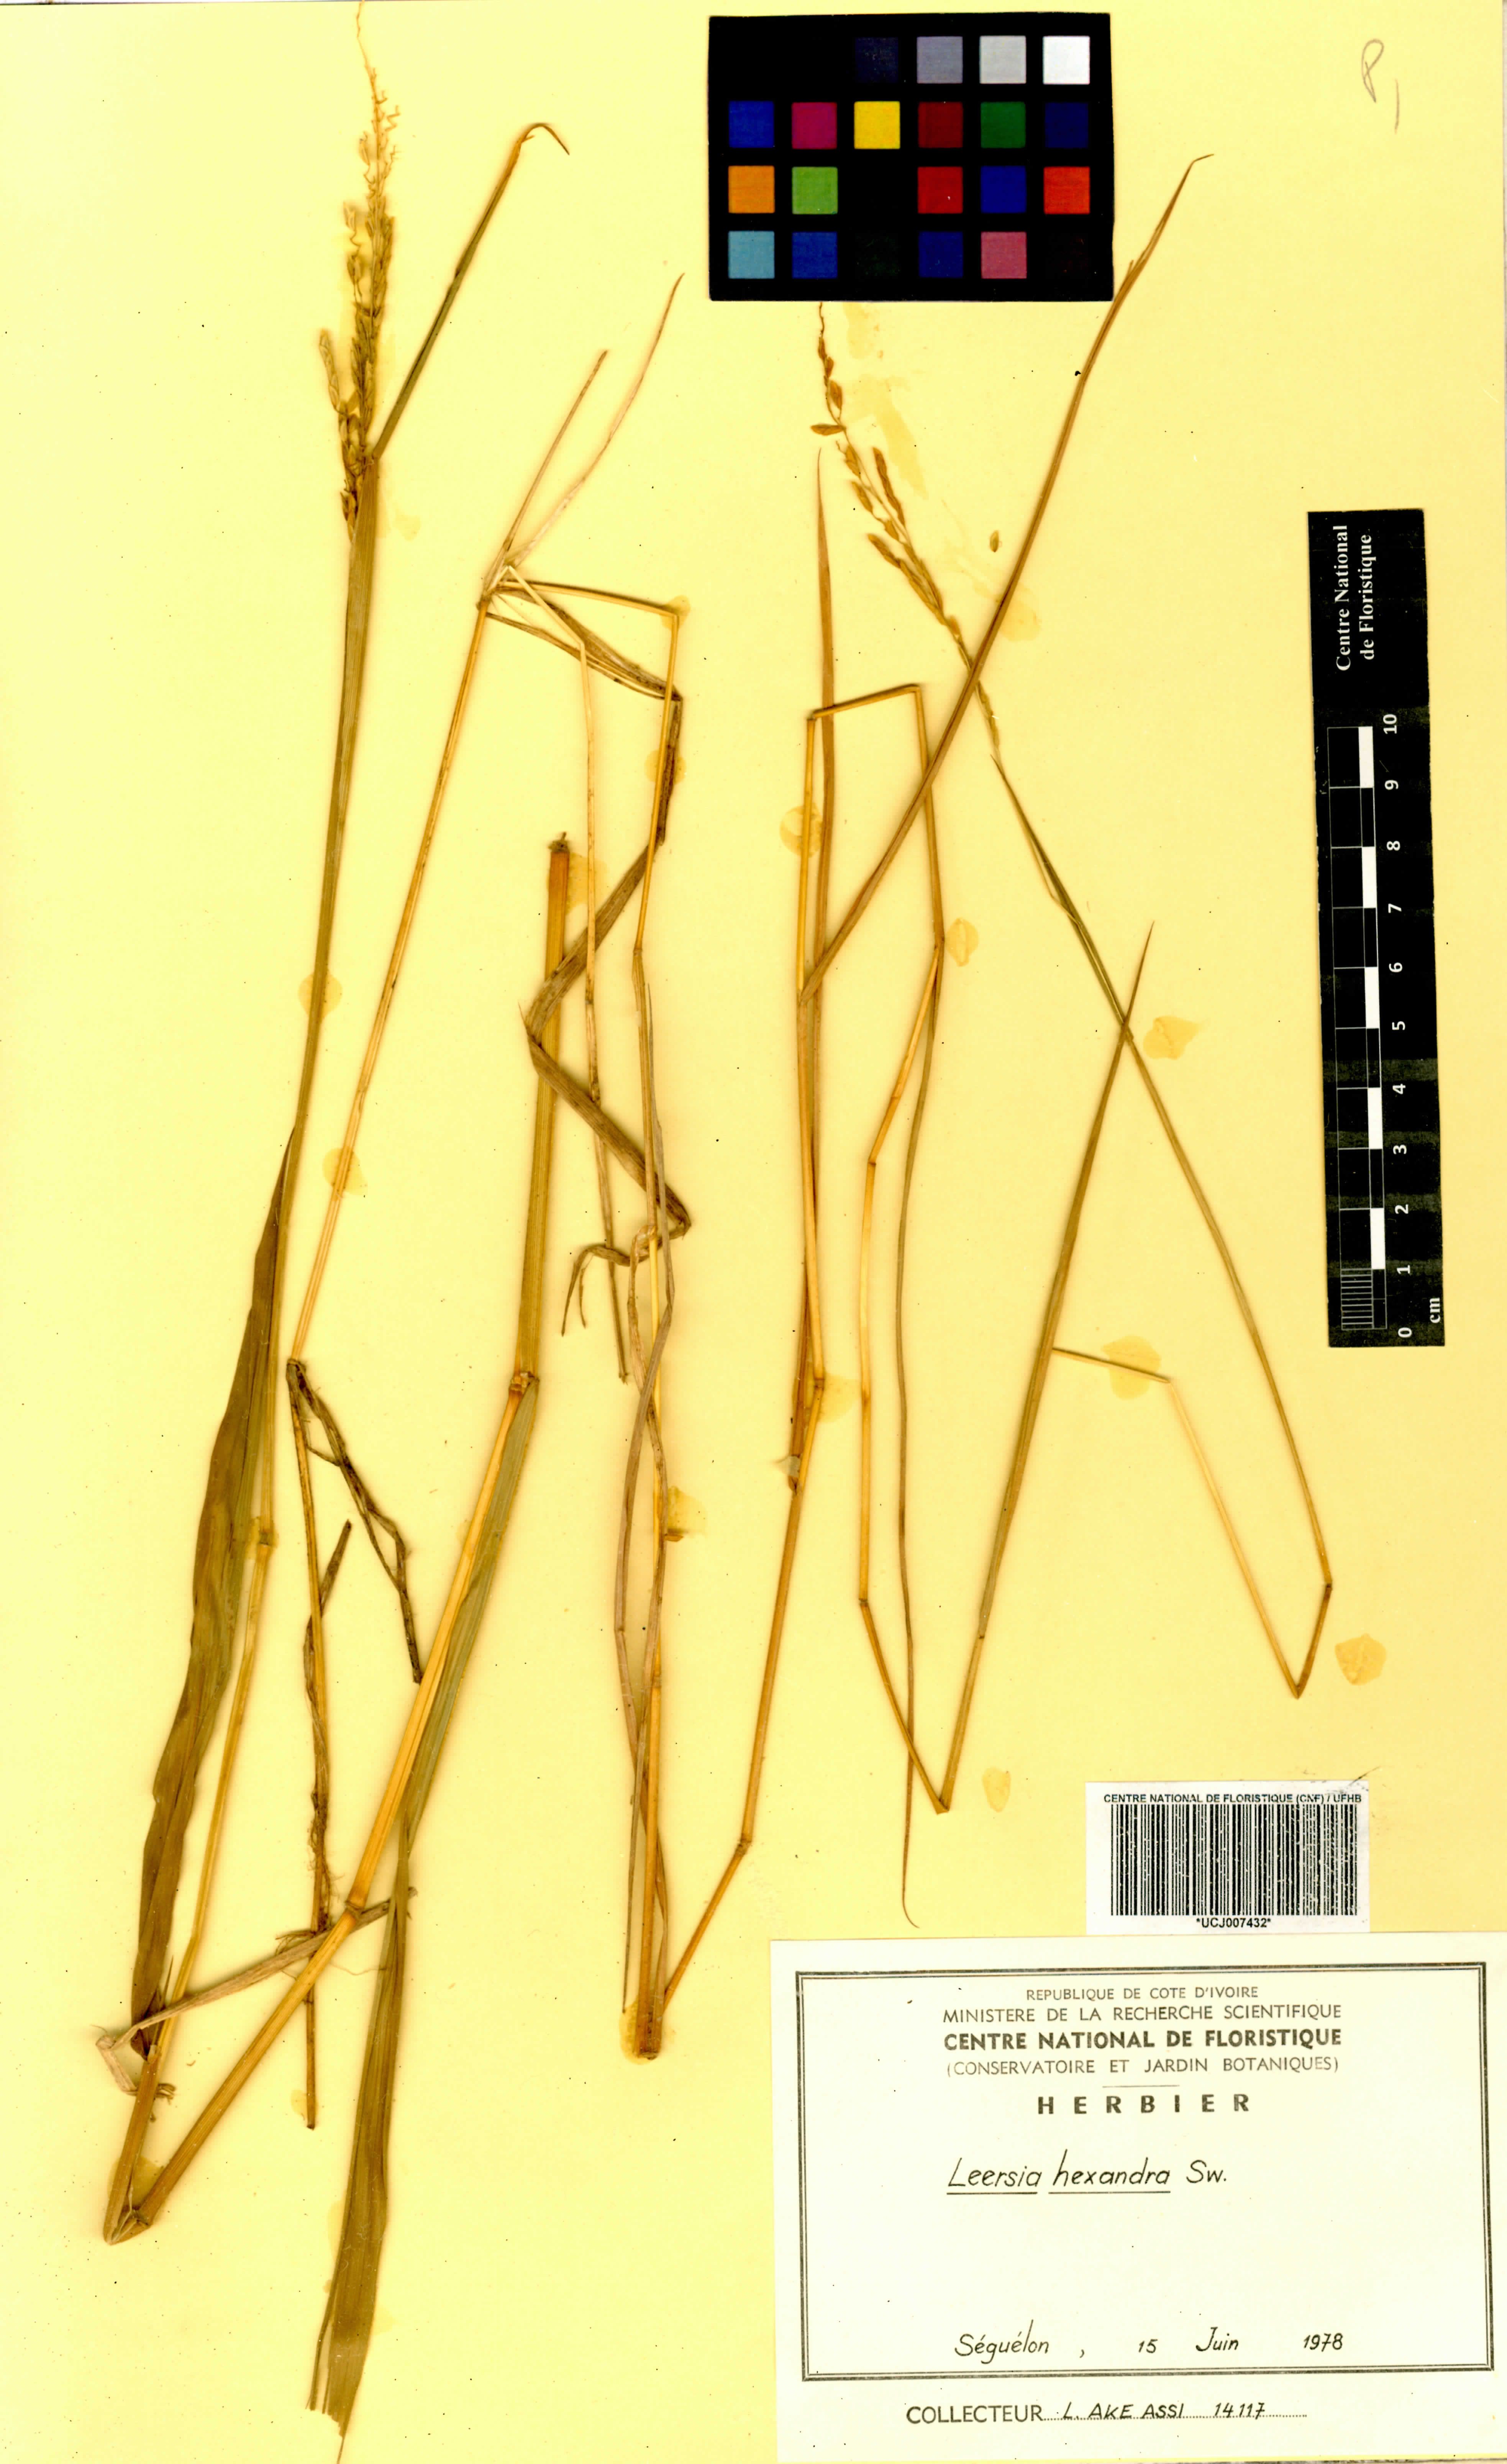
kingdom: Plantae
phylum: Tracheophyta
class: Liliopsida
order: Poales
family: Poaceae
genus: Leersia
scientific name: Leersia hexandra
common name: Southern cut grass
